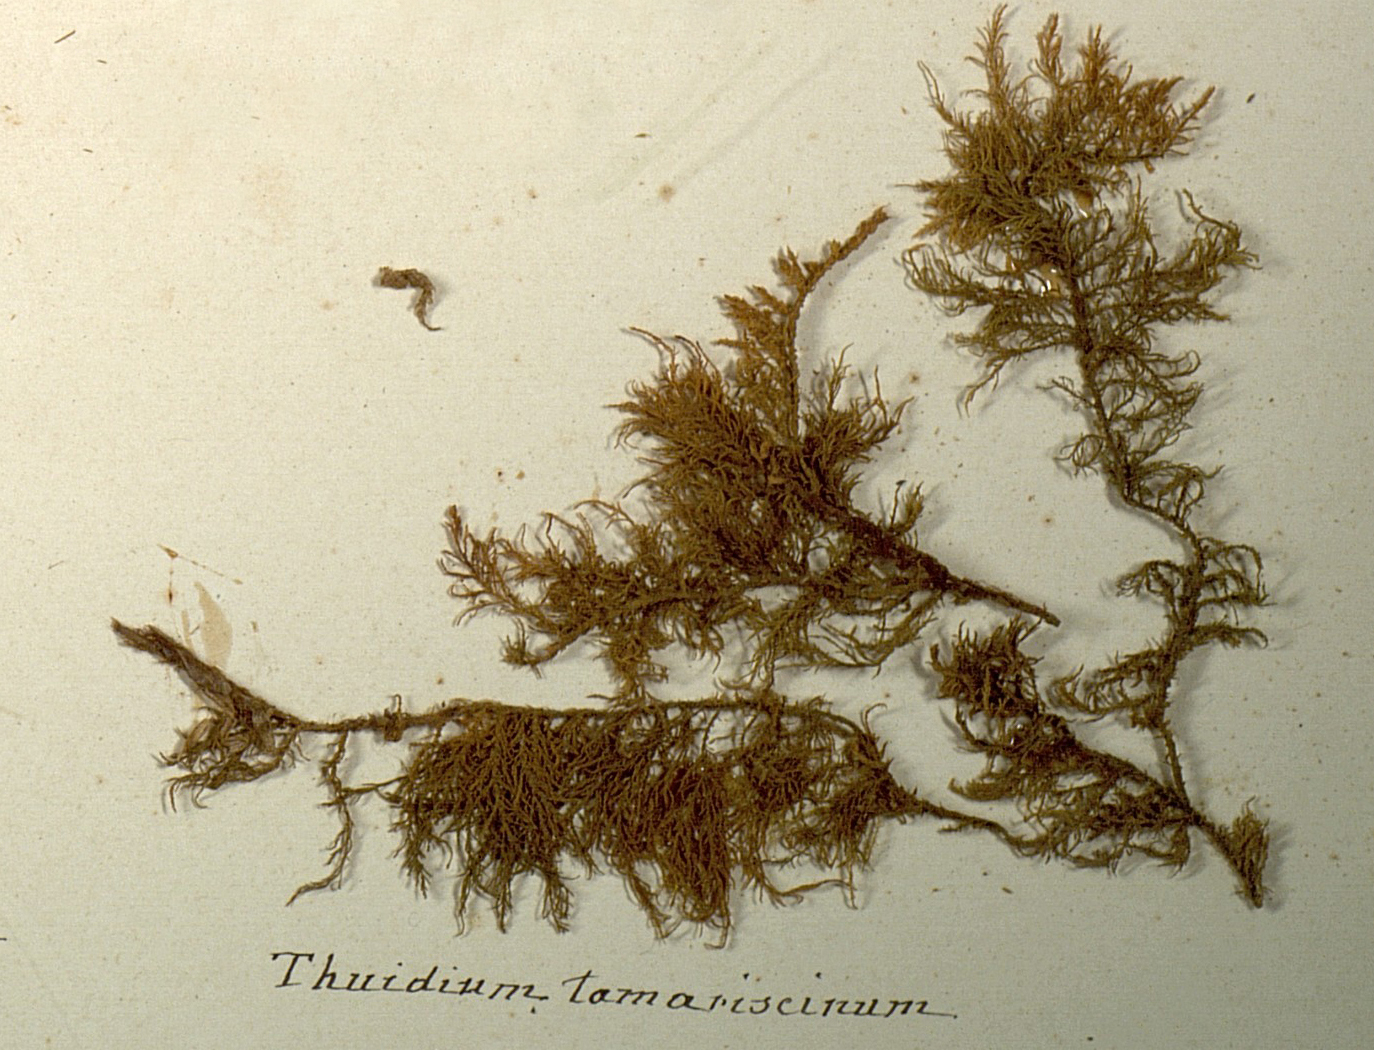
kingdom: Plantae
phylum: Bryophyta
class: Bryopsida
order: Hypnales
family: Thuidiaceae
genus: Thuidium
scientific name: Thuidium tamariscinum
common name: Common tamarisk-moss
